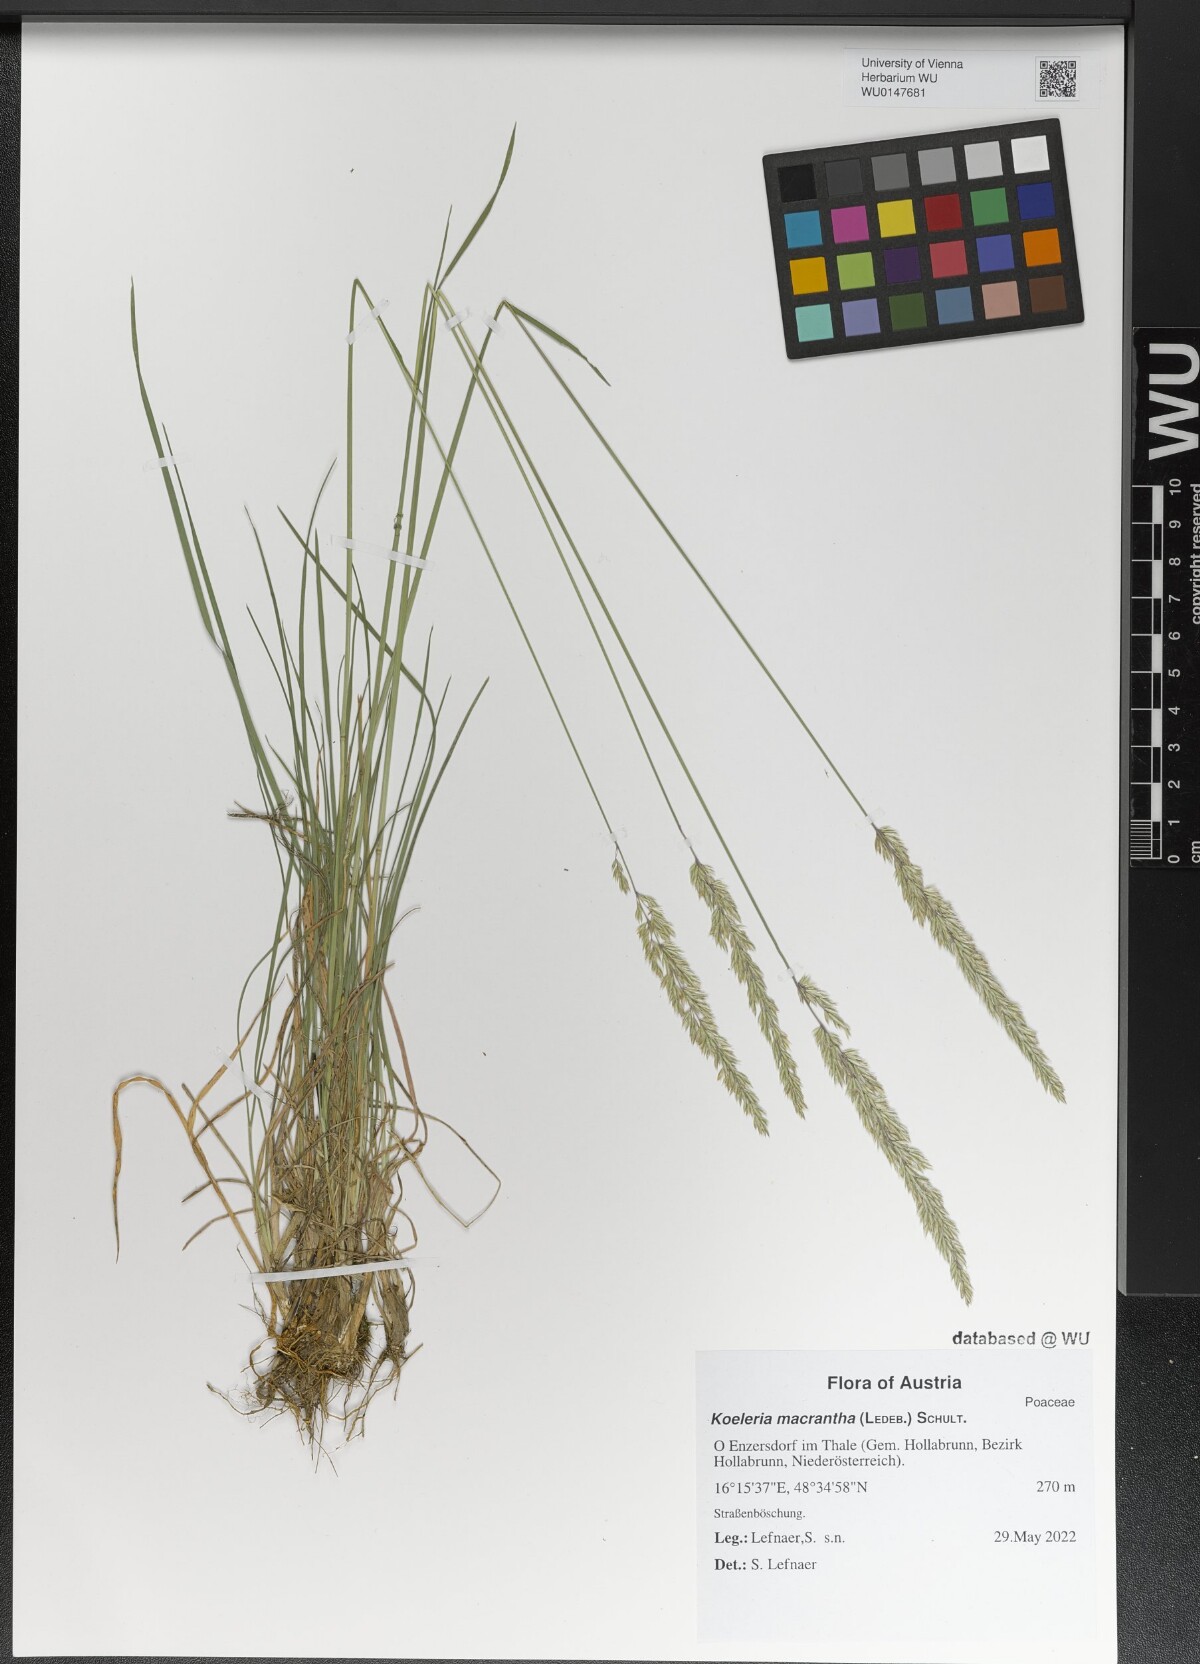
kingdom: Plantae
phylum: Tracheophyta
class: Liliopsida
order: Poales
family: Poaceae
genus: Koeleria
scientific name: Koeleria macrantha
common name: Crested hair-grass
